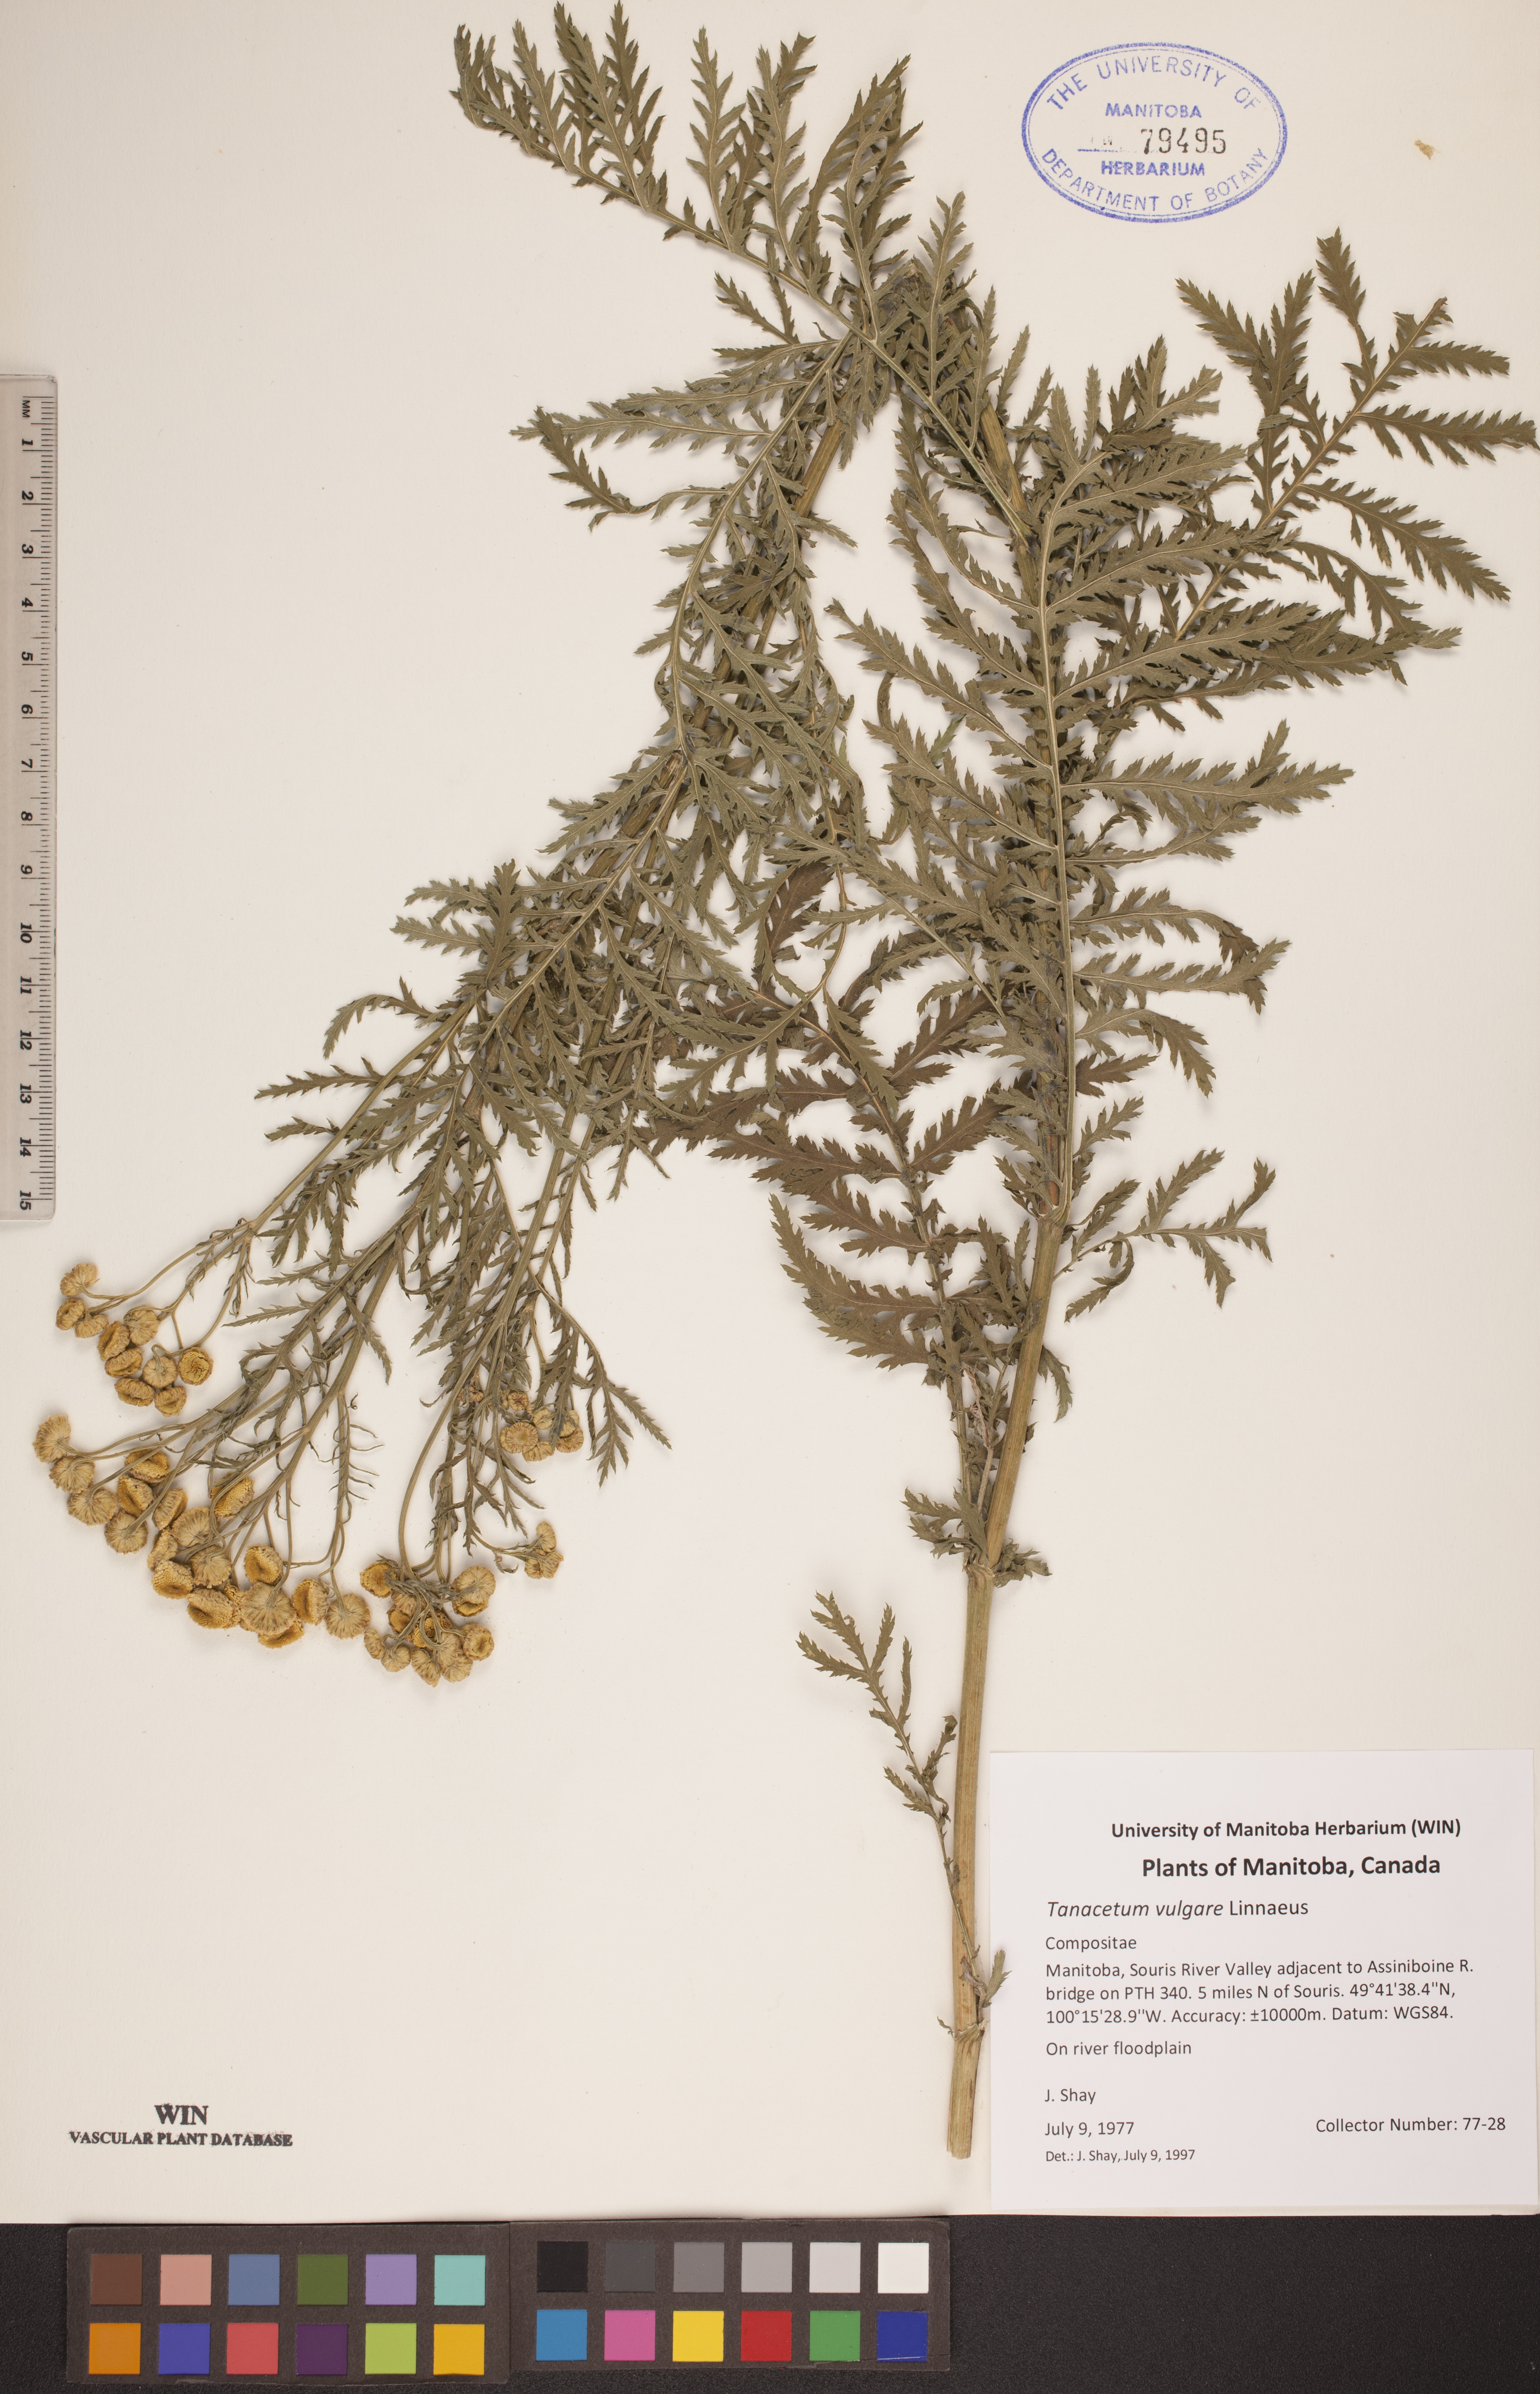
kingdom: Plantae
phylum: Tracheophyta
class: Magnoliopsida
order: Asterales
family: Asteraceae
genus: Tanacetum
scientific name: Tanacetum vulgare
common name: Common tansy
